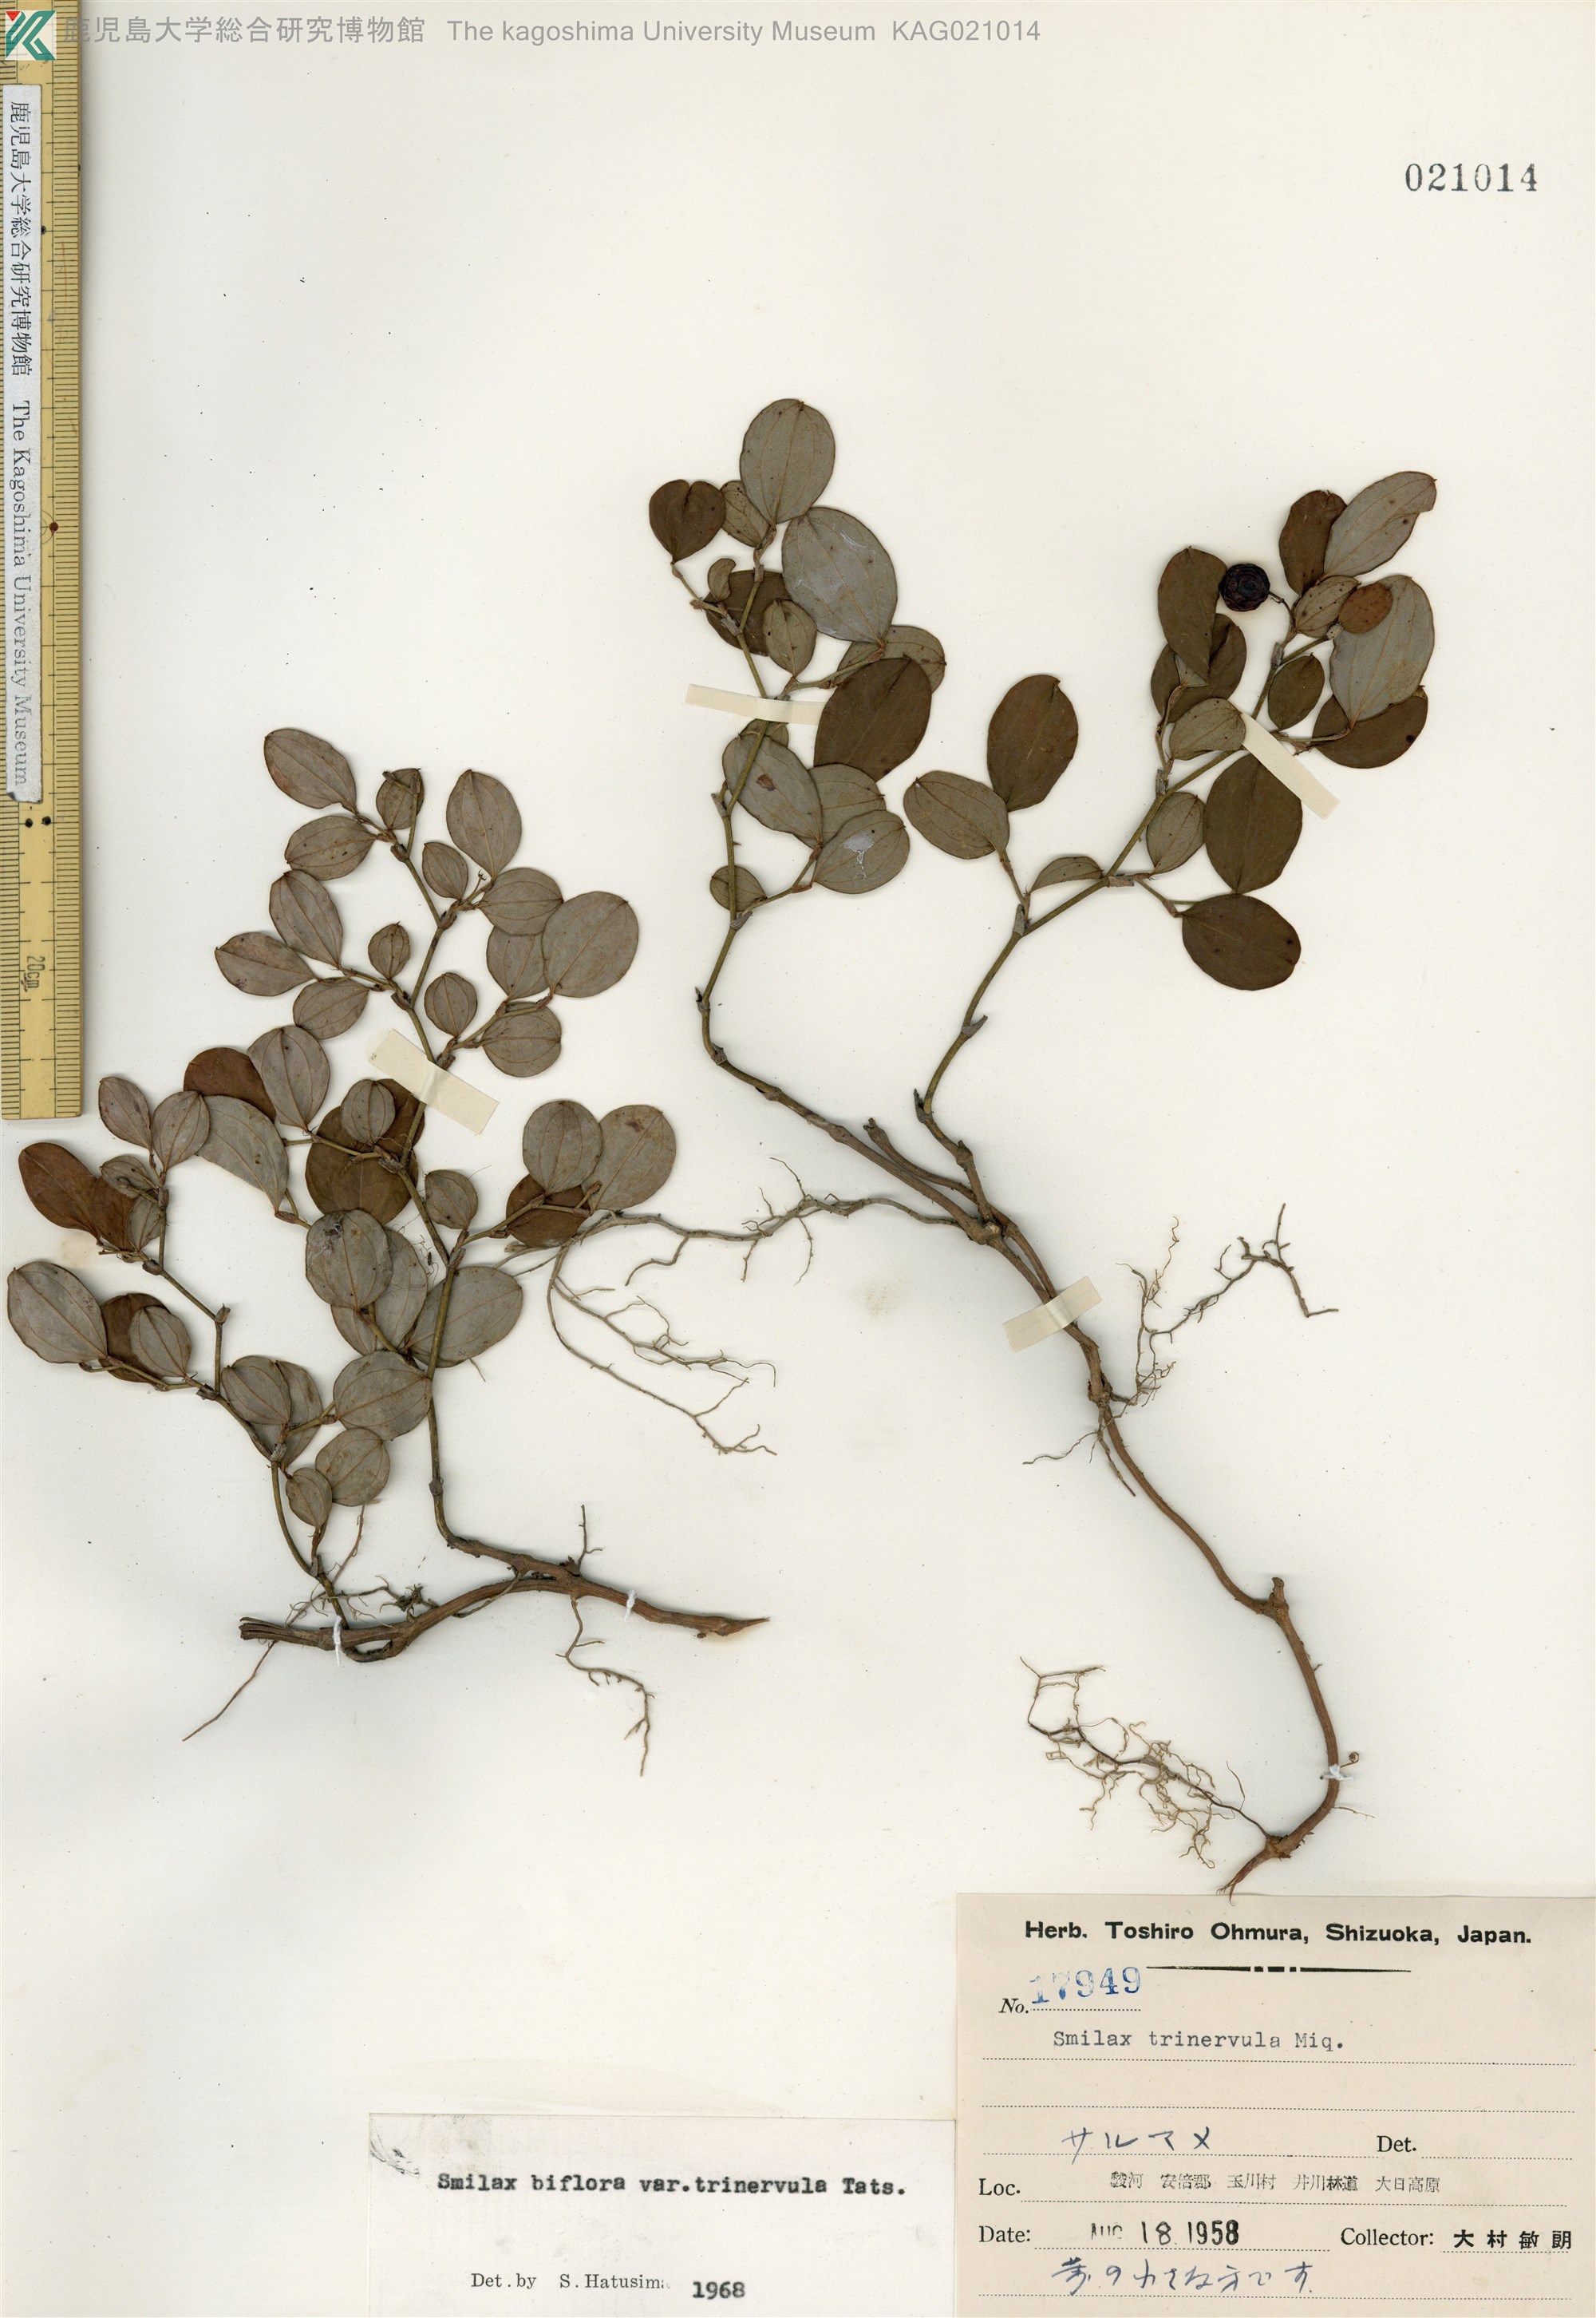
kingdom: Plantae
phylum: Tracheophyta
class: Liliopsida
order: Liliales
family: Smilacaceae
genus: Smilax
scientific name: Smilax trinervula
